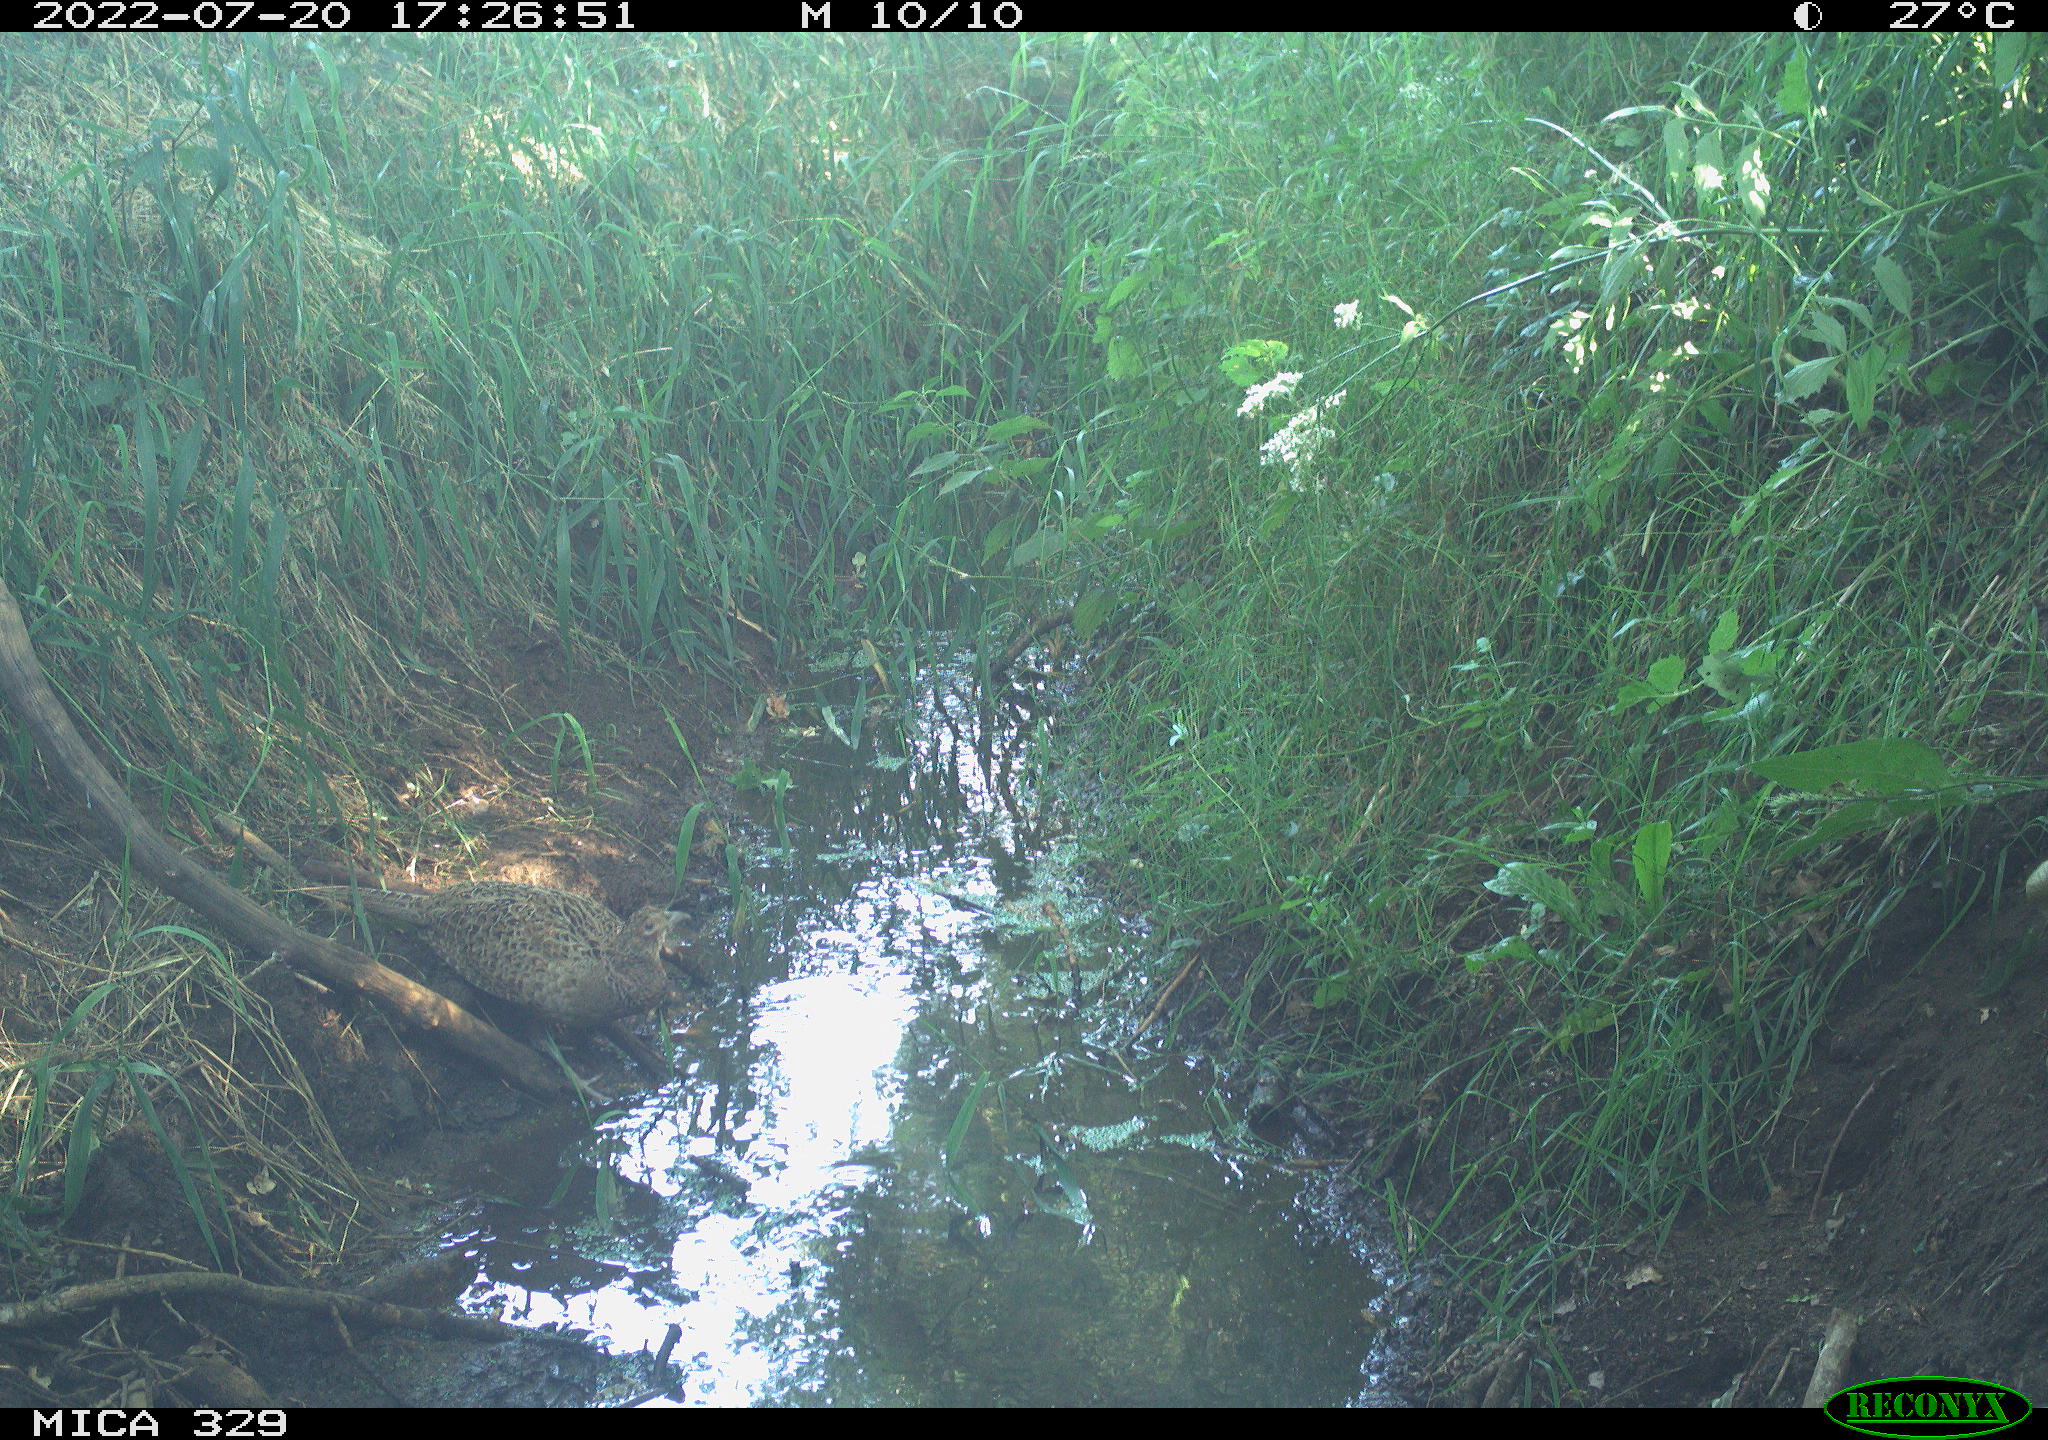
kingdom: Animalia
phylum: Chordata
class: Aves
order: Galliformes
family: Phasianidae
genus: Phasianus
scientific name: Phasianus colchicus
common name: Common pheasant
